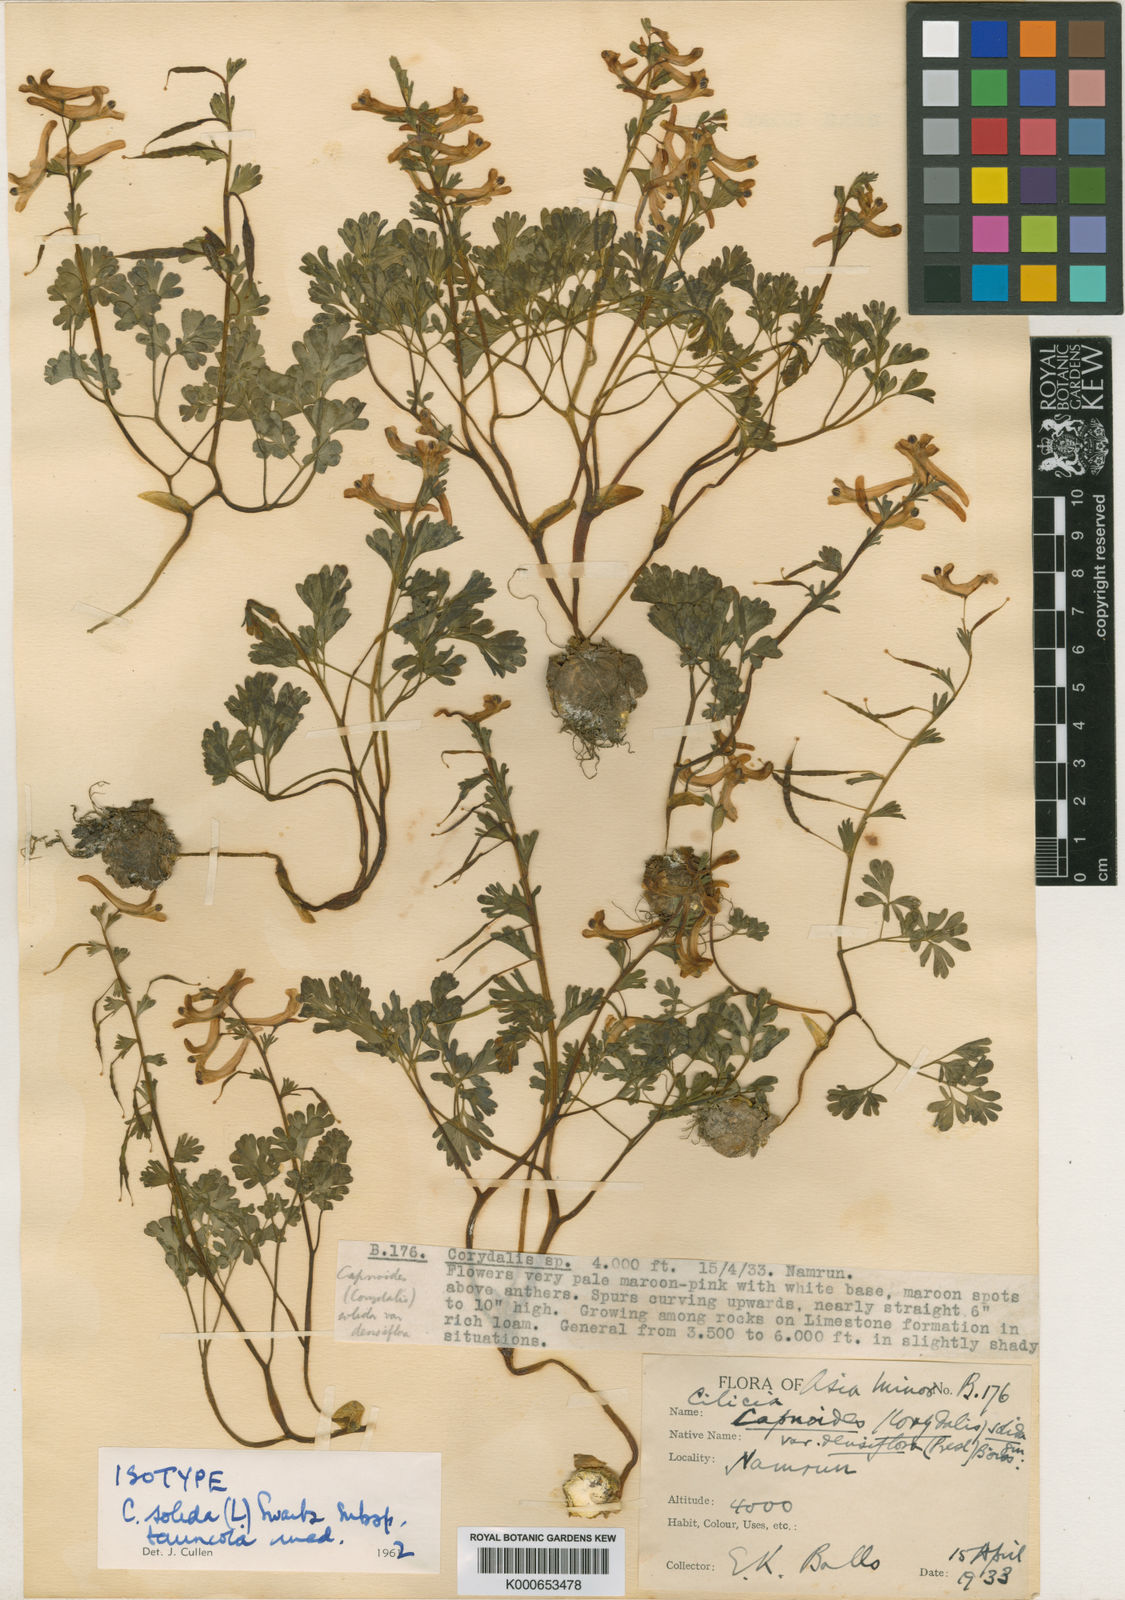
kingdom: Plantae
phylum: Tracheophyta
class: Magnoliopsida
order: Ranunculales
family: Papaveraceae
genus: Corydalis
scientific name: Corydalis
